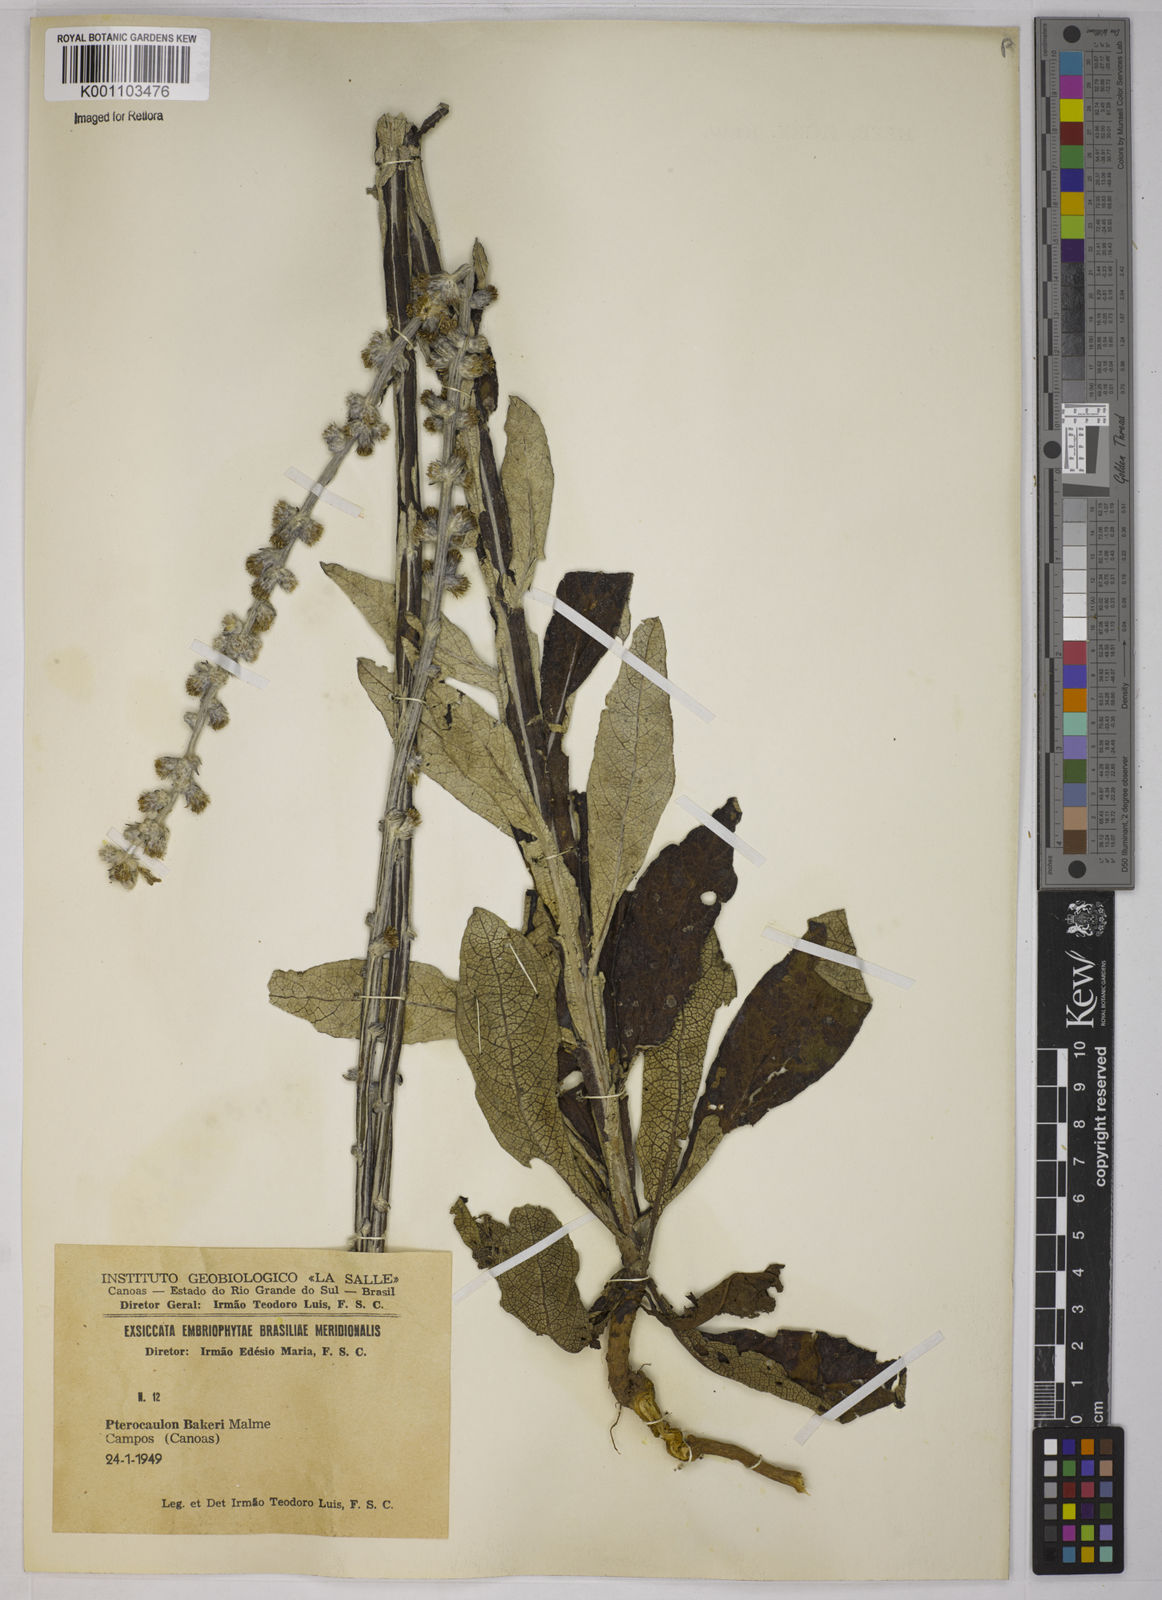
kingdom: Plantae
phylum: Tracheophyta
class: Magnoliopsida
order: Asterales
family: Asteraceae
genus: Pterocaulon
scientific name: Pterocaulon polypterum
